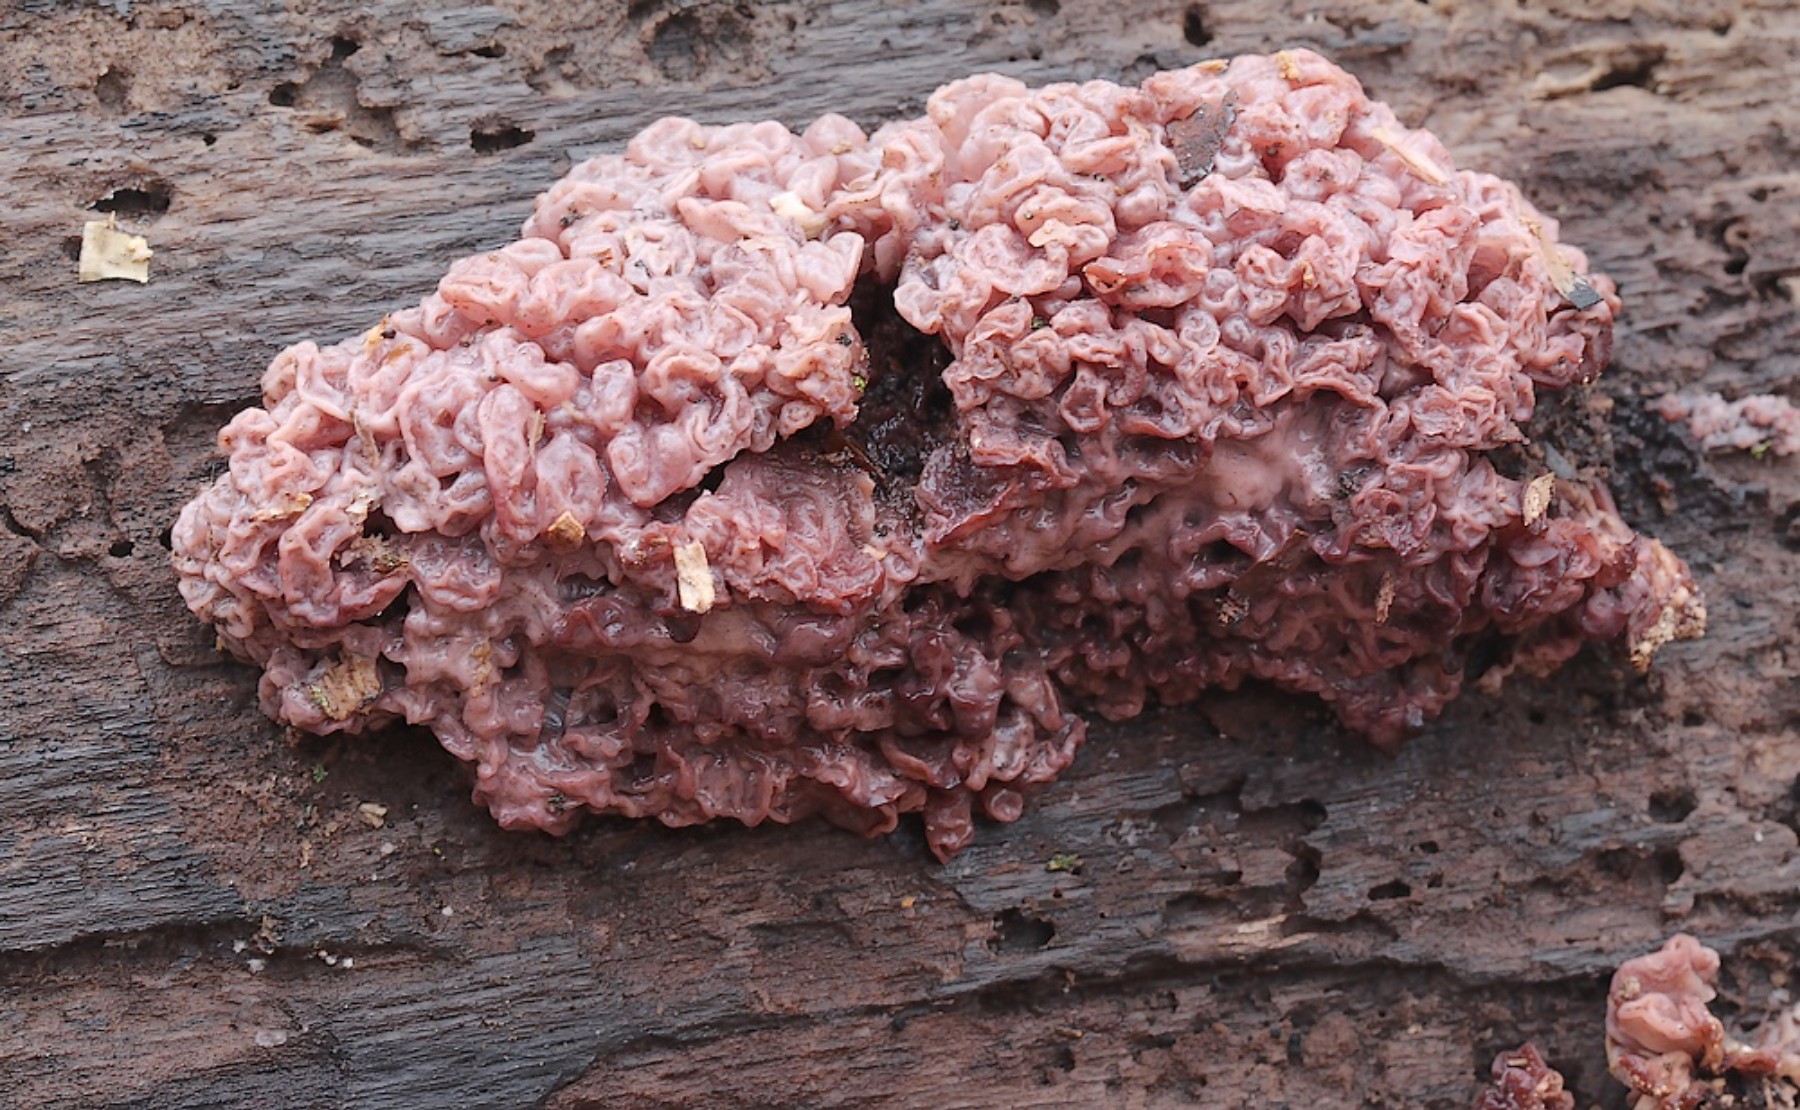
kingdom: Fungi
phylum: Ascomycota
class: Leotiomycetes
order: Helotiales
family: Gelatinodiscaceae
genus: Ascocoryne
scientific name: Ascocoryne sarcoides
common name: rødlilla sejskive
